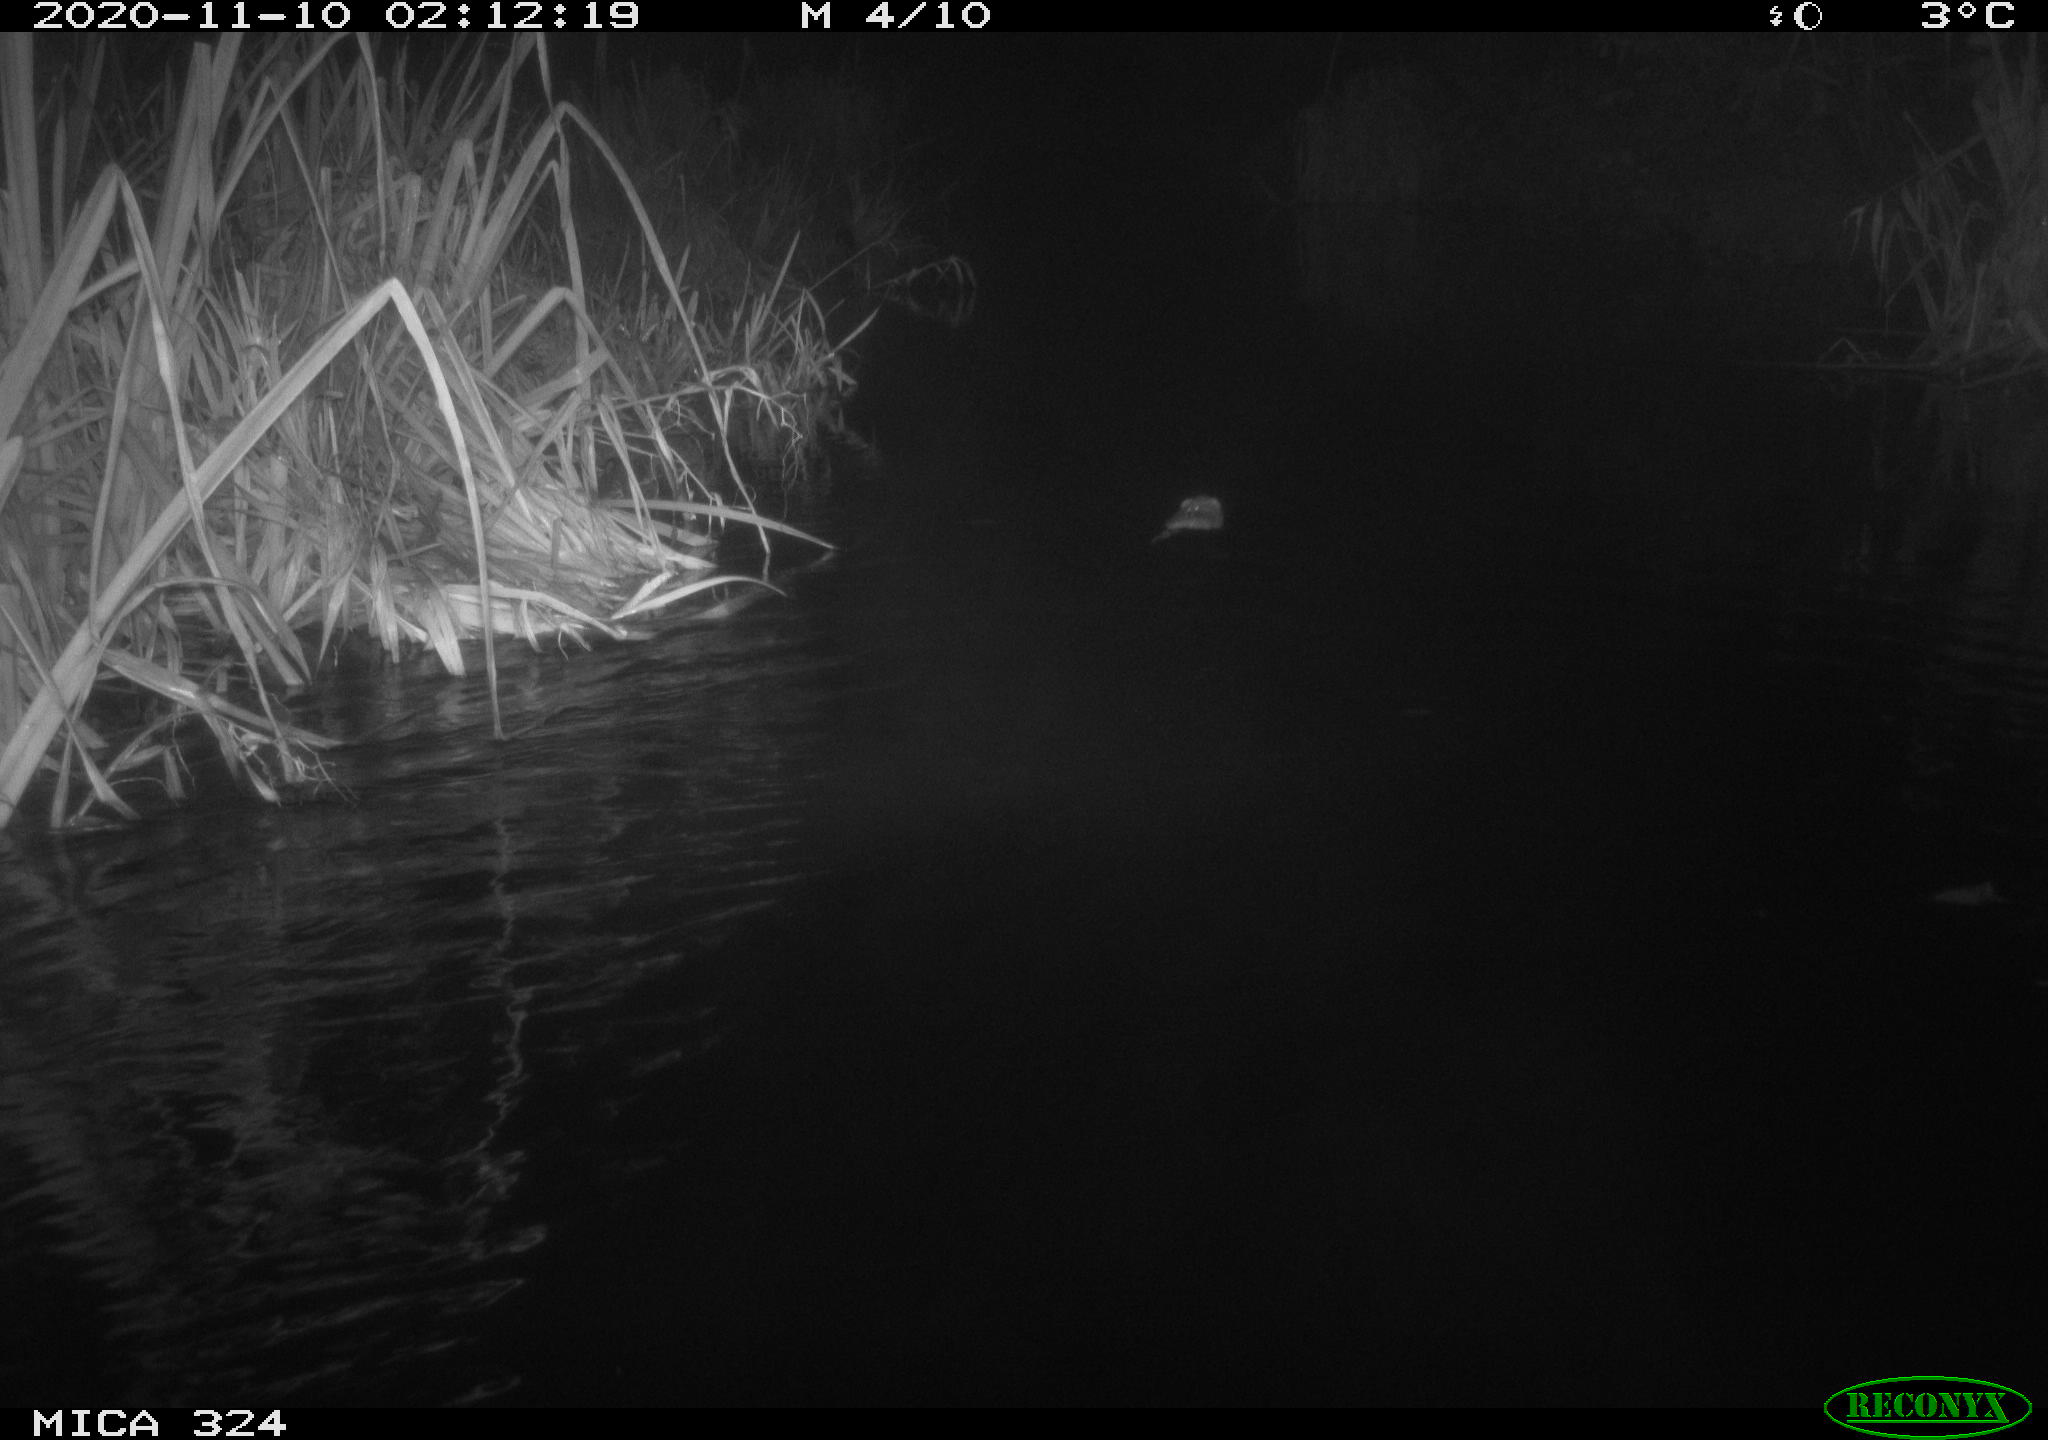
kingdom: Animalia
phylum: Chordata
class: Mammalia
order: Rodentia
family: Cricetidae
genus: Ondatra
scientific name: Ondatra zibethicus
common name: Muskrat
